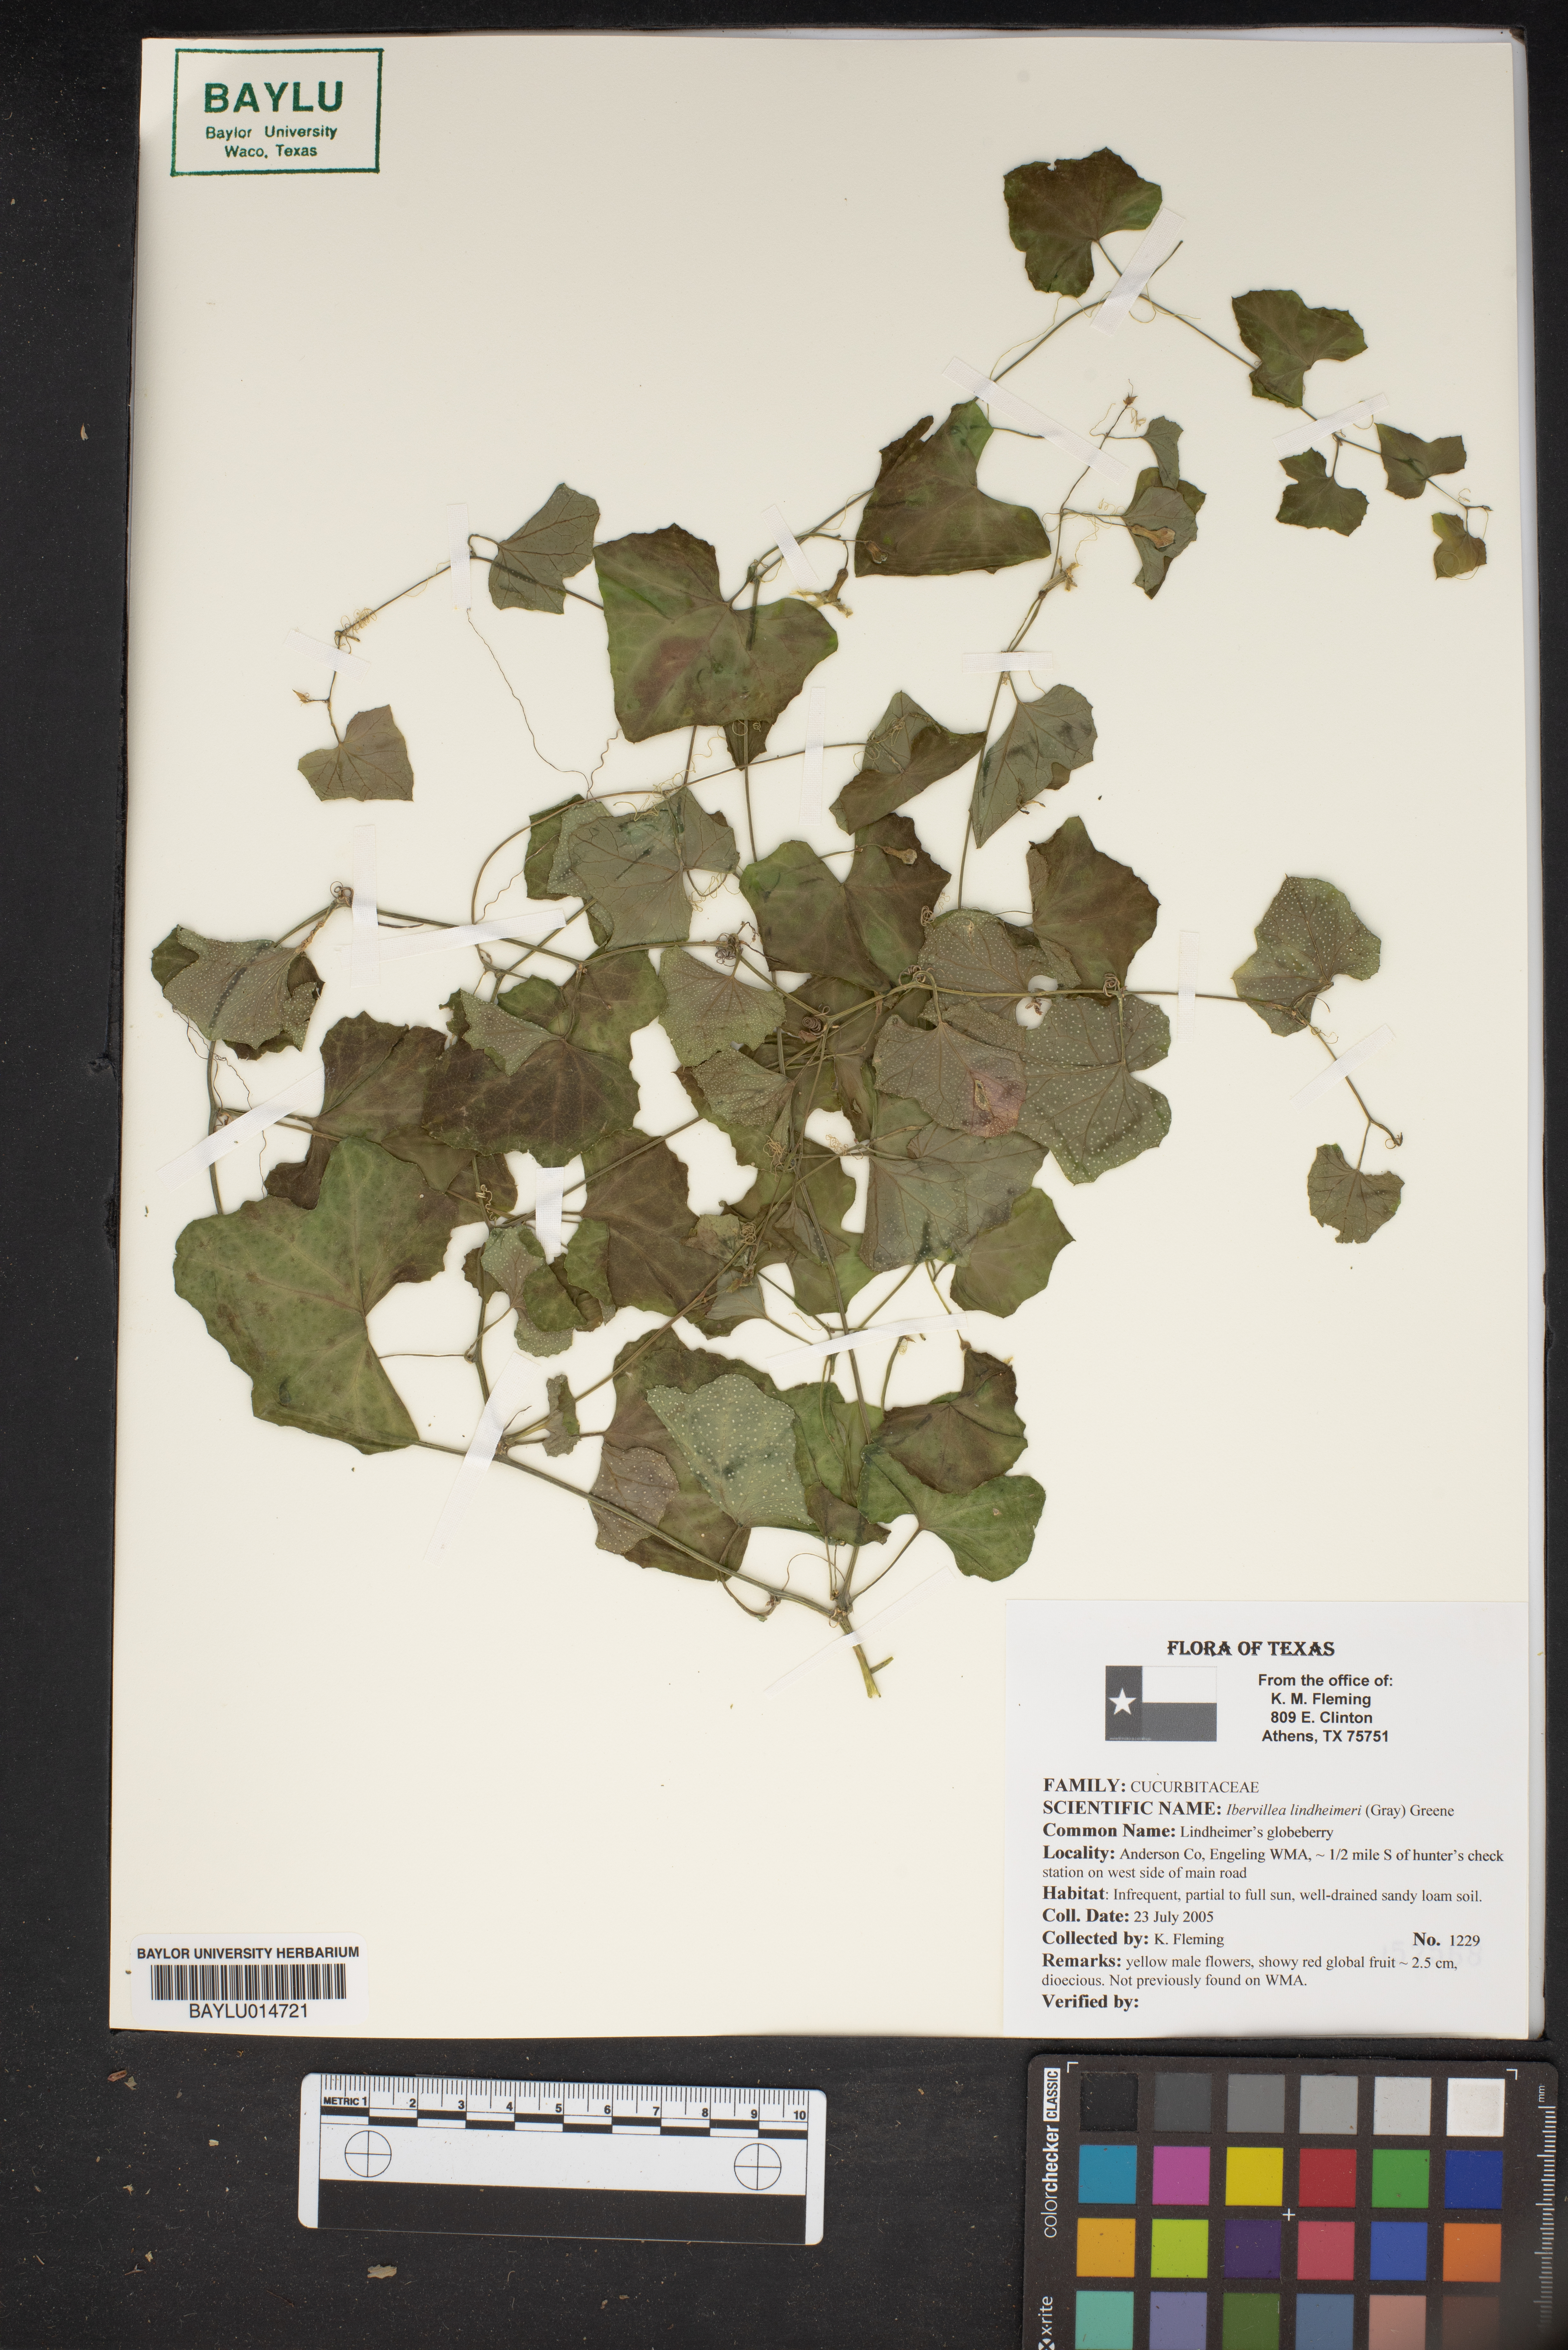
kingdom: Plantae
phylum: Tracheophyta
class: Magnoliopsida
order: Cucurbitales
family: Cucurbitaceae
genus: Ibervillea
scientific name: Ibervillea lindheimeri
